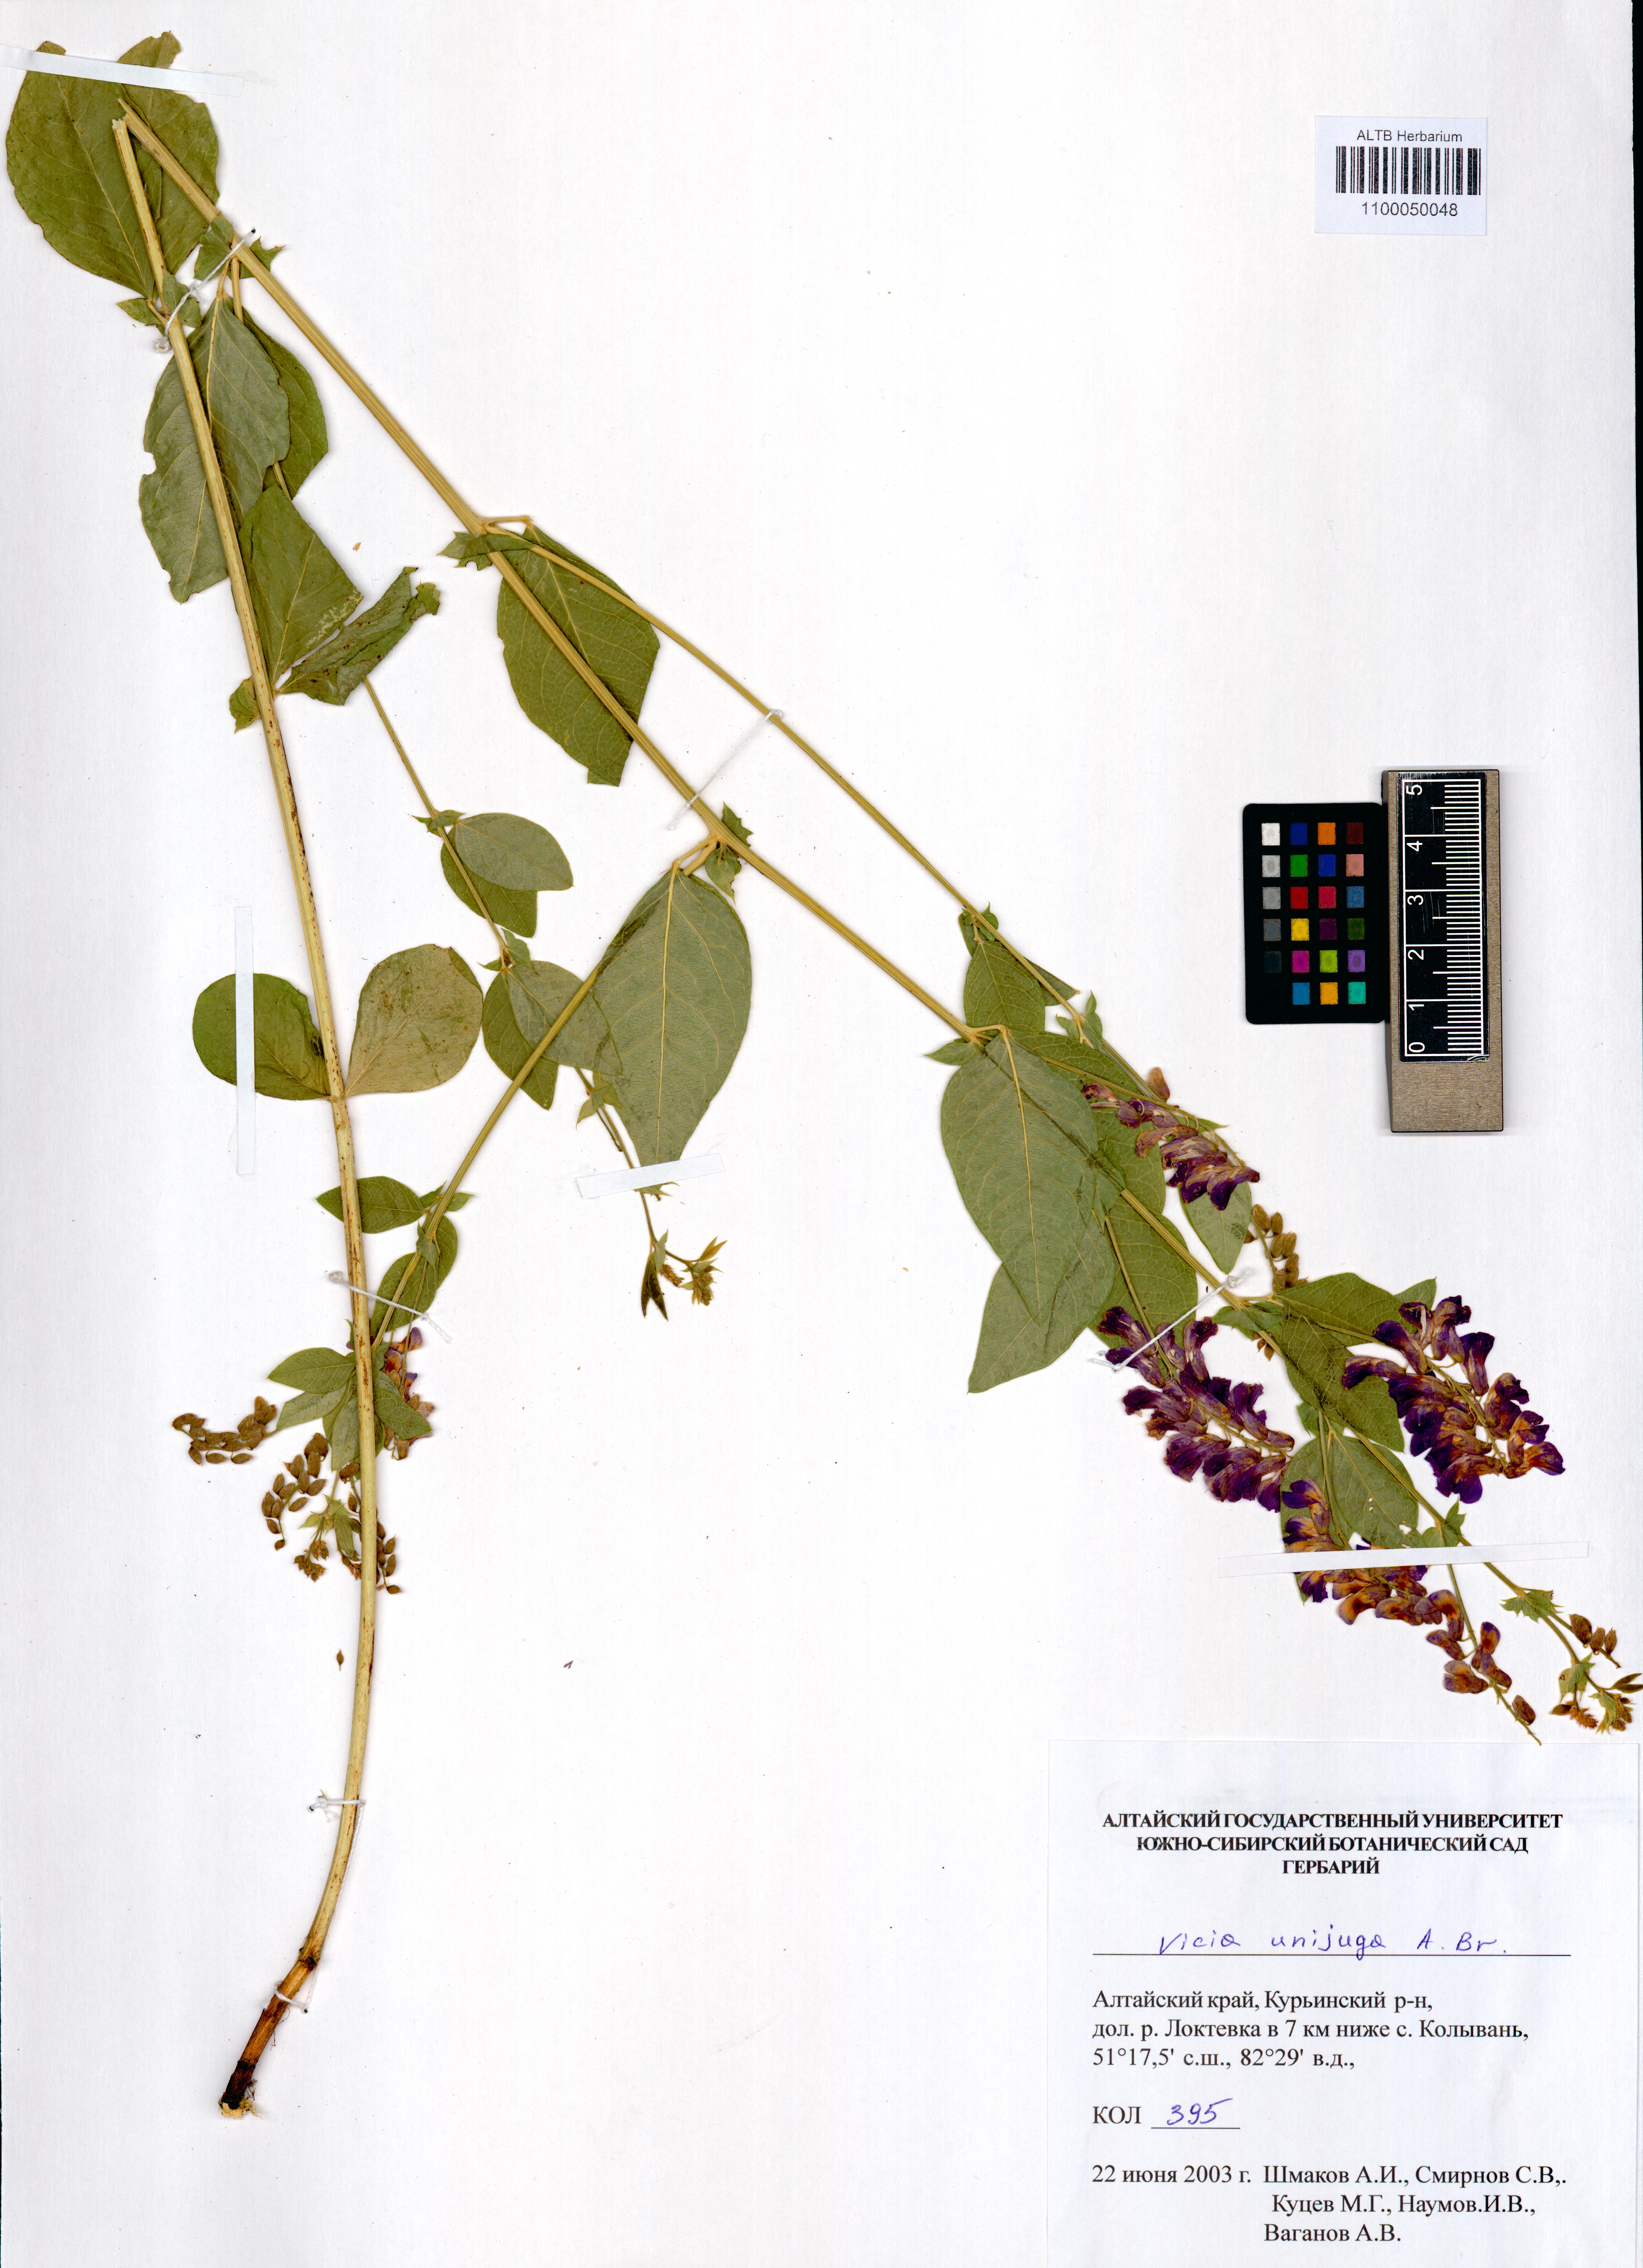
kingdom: Plantae
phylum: Tracheophyta
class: Magnoliopsida
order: Fabales
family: Fabaceae
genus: Vicia
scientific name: Vicia unijuga
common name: Two-leaf vetch
